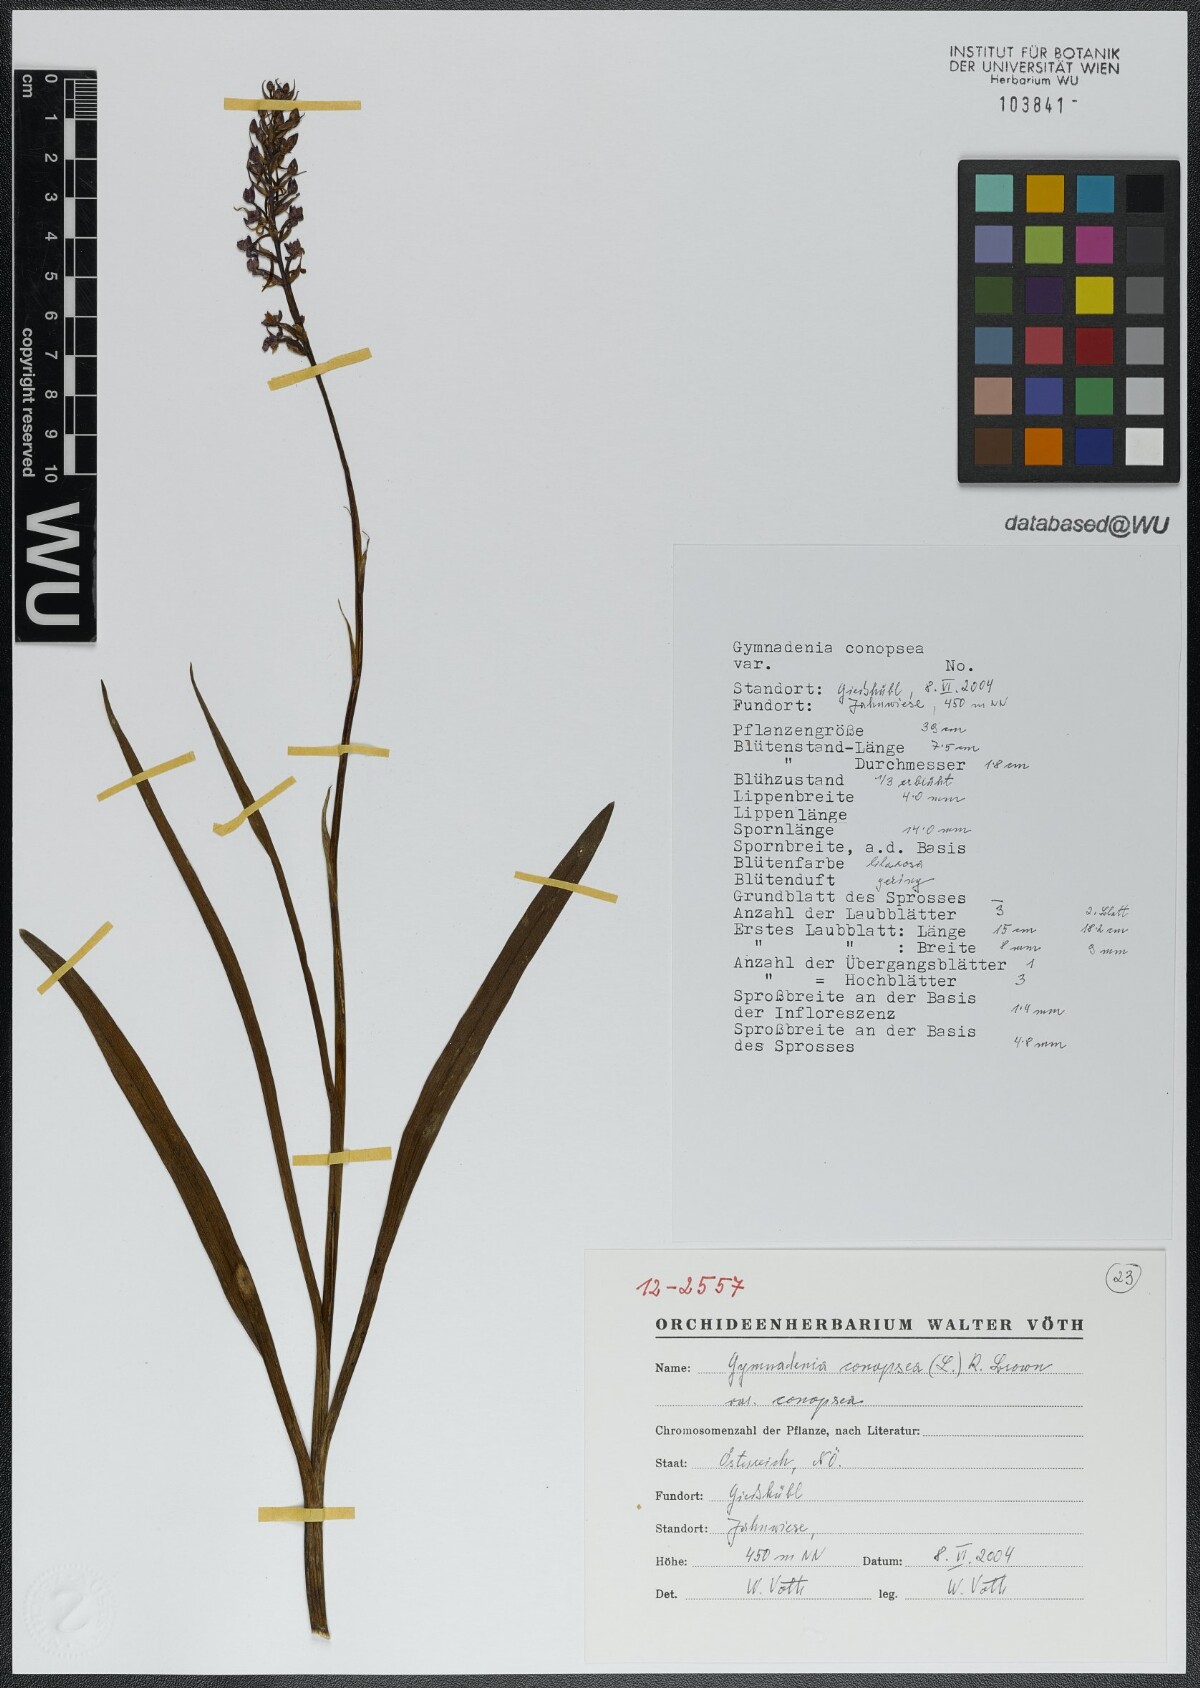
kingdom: Plantae
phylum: Tracheophyta
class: Liliopsida
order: Asparagales
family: Orchidaceae
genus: Gymnadenia
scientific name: Gymnadenia conopsea
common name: Fragrant orchid
